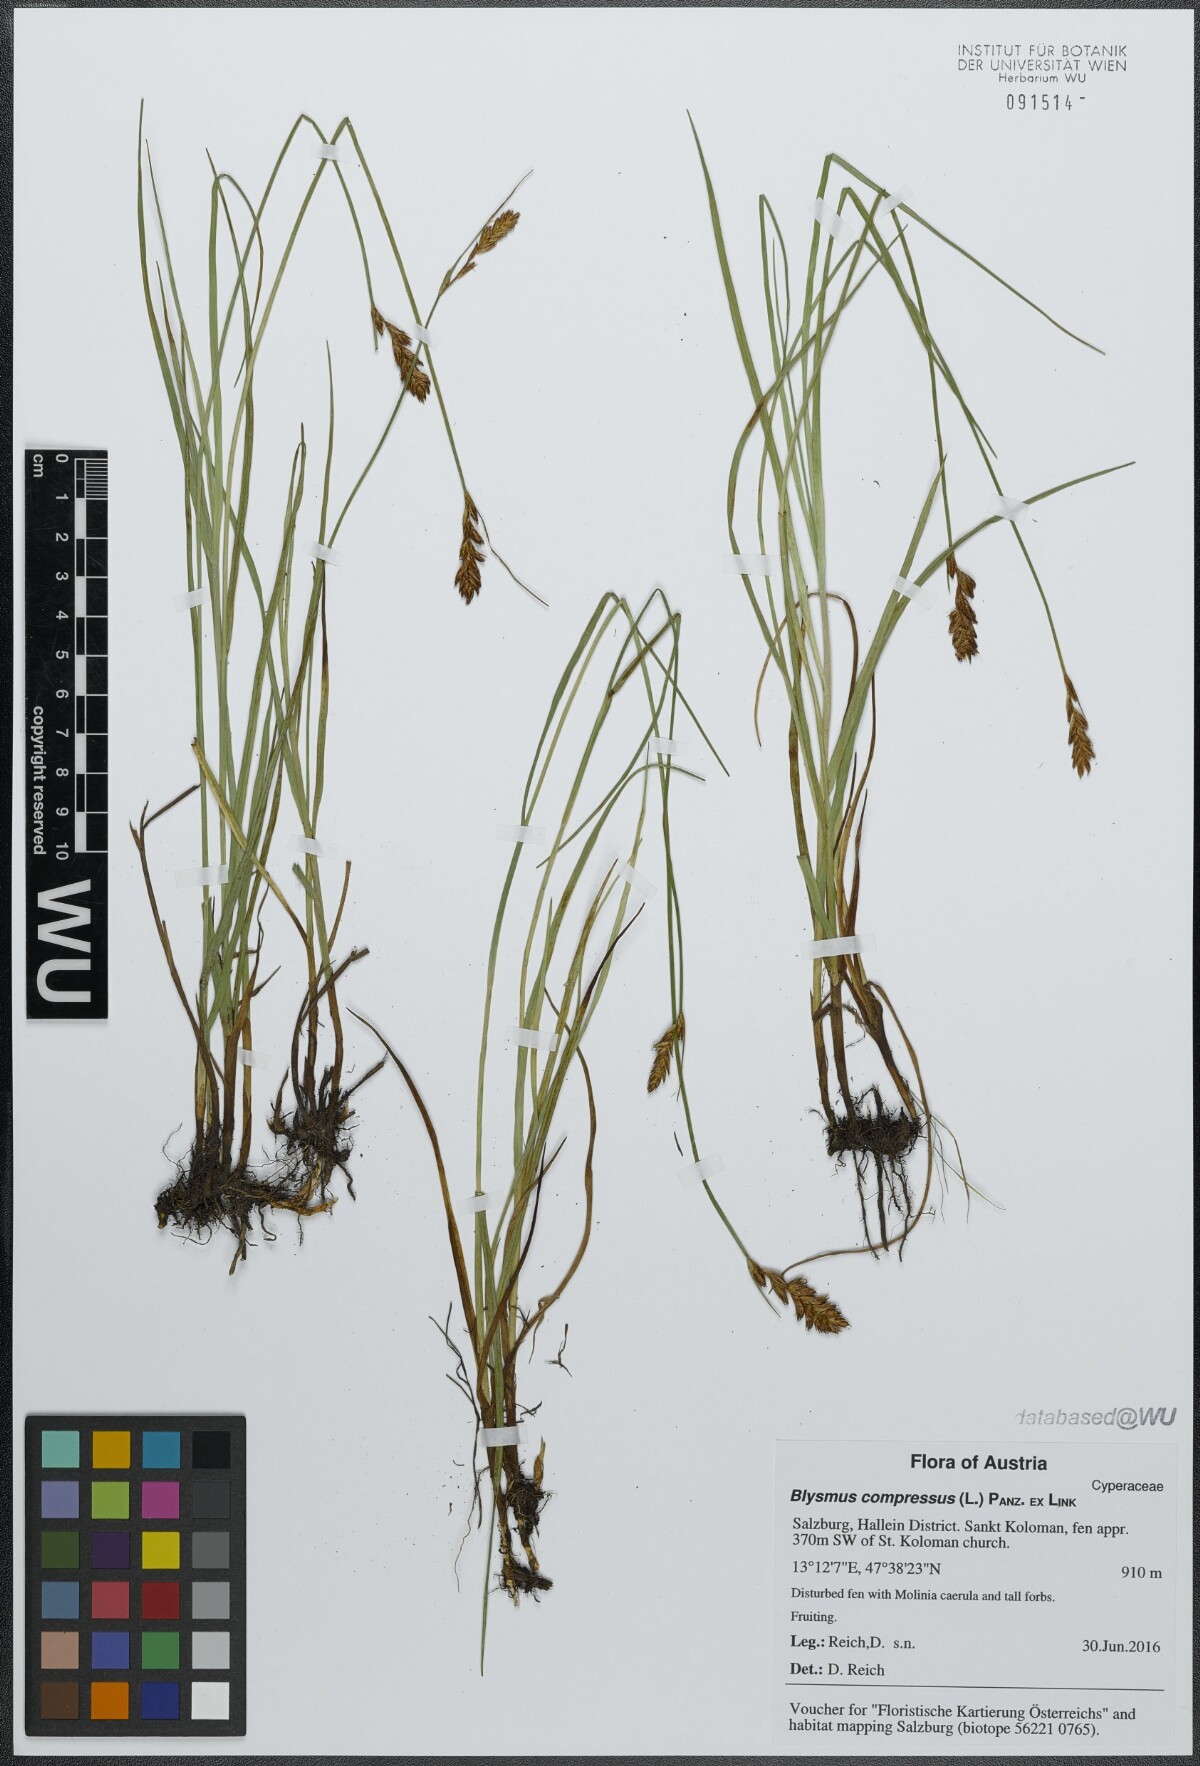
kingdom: Plantae
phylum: Tracheophyta
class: Liliopsida
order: Poales
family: Cyperaceae
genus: Blysmus
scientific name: Blysmus compressus
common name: Flat-sedge
